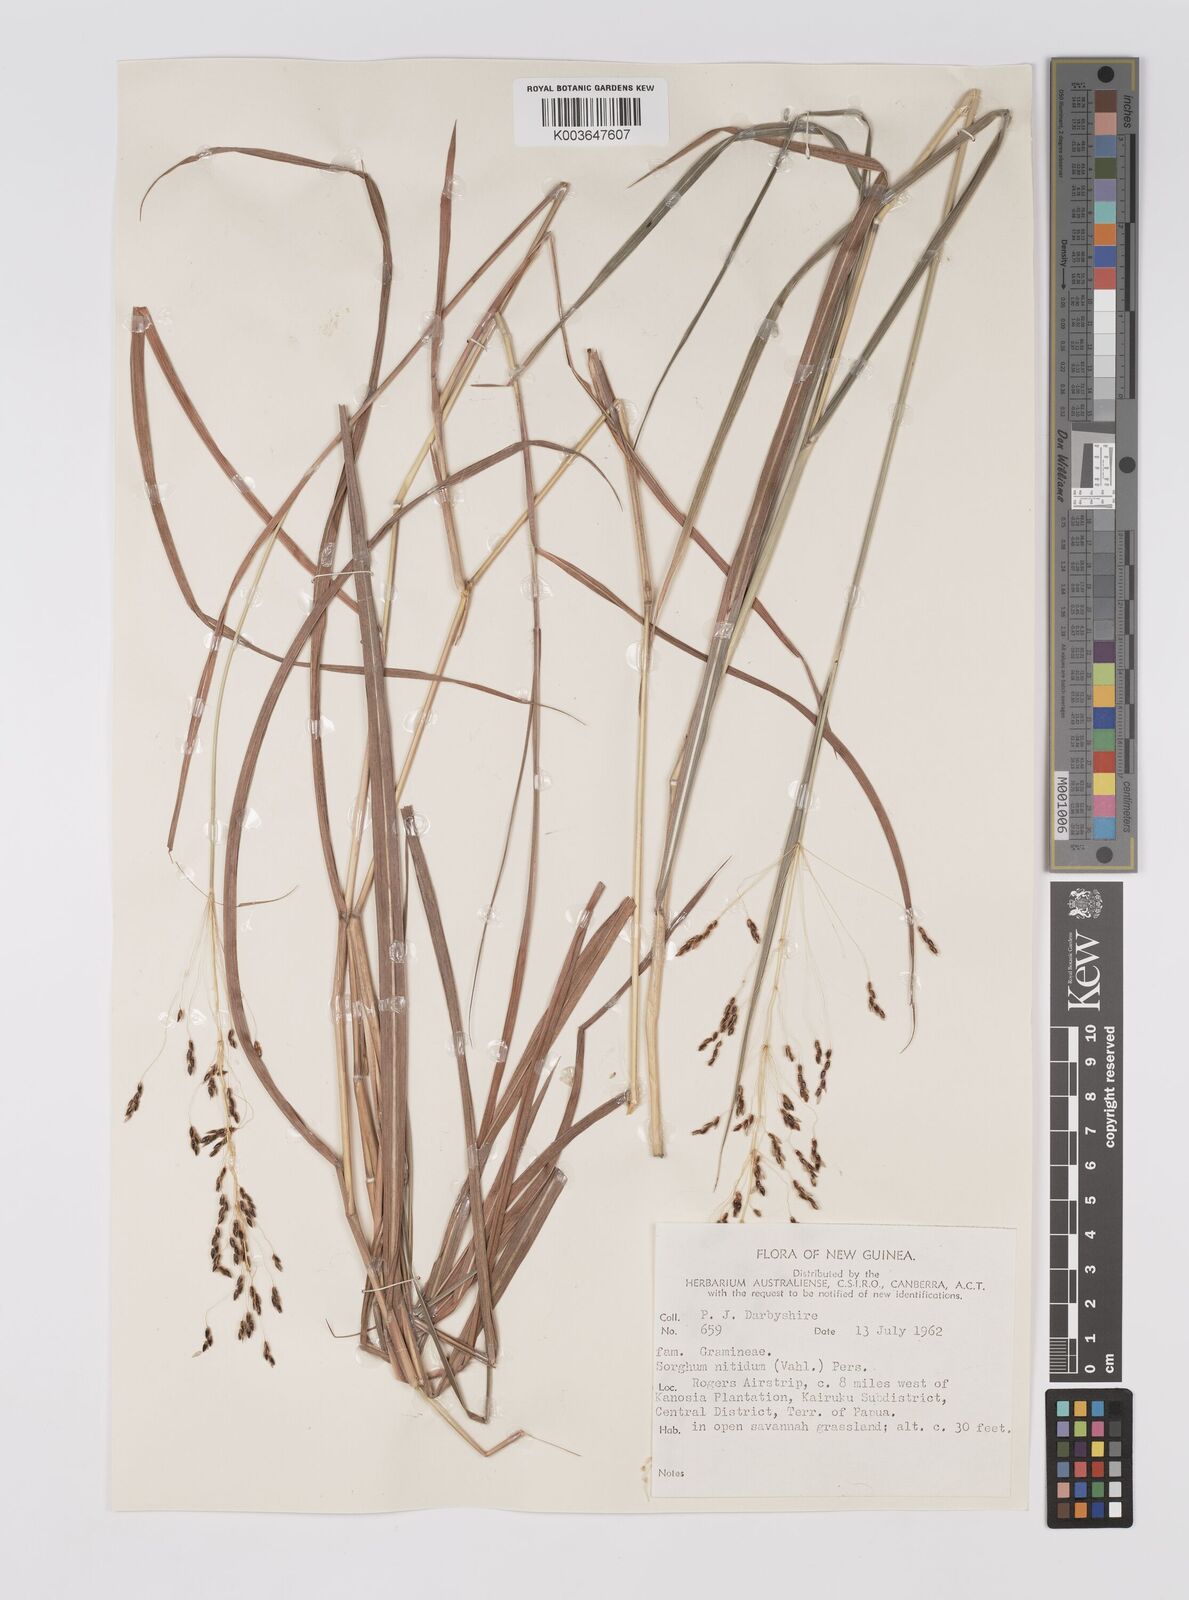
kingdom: Plantae
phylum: Tracheophyta
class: Liliopsida
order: Poales
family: Poaceae
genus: Sorghum
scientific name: Sorghum nitidum
